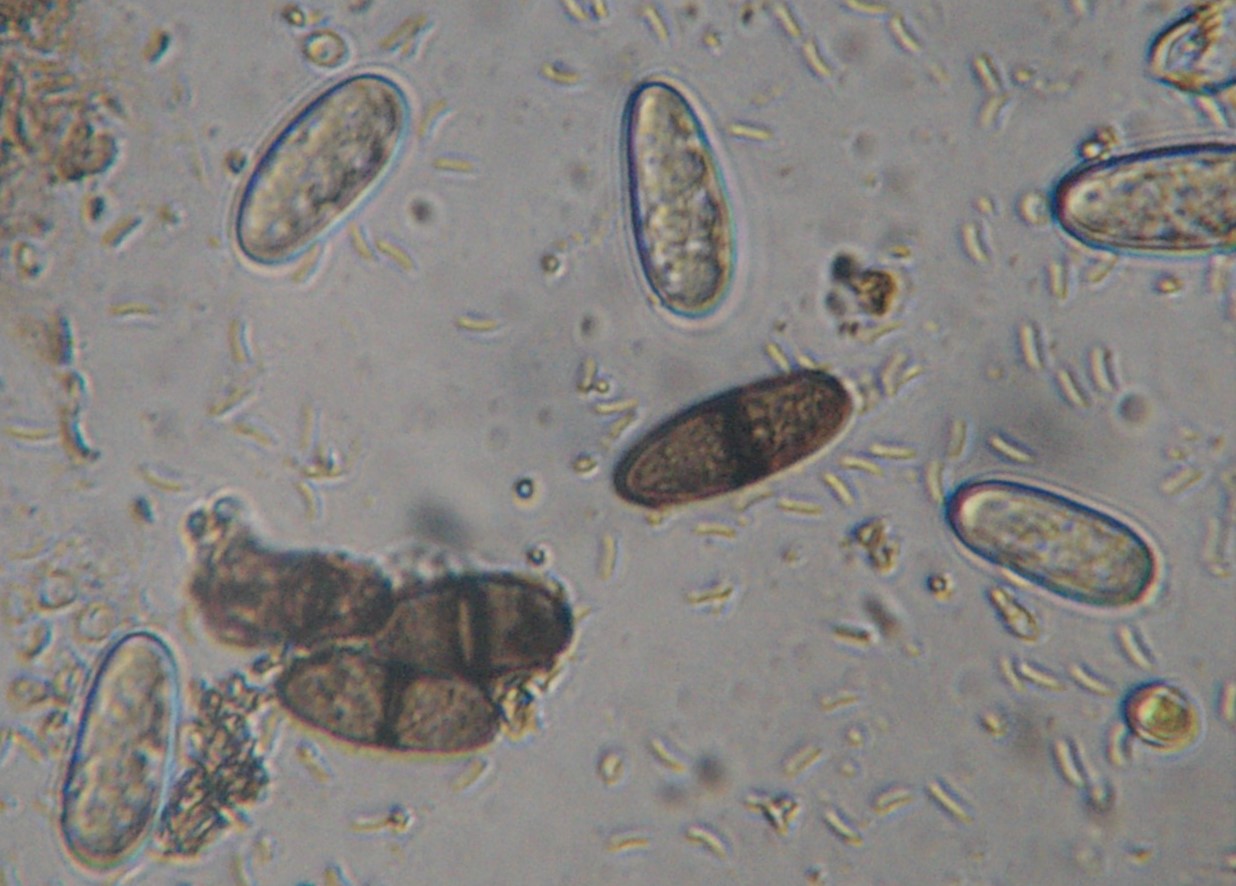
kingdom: Fungi
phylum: Ascomycota
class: Sordariomycetes
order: Diaporthales
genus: Botryodiplodia
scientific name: Botryodiplodia fraxini
